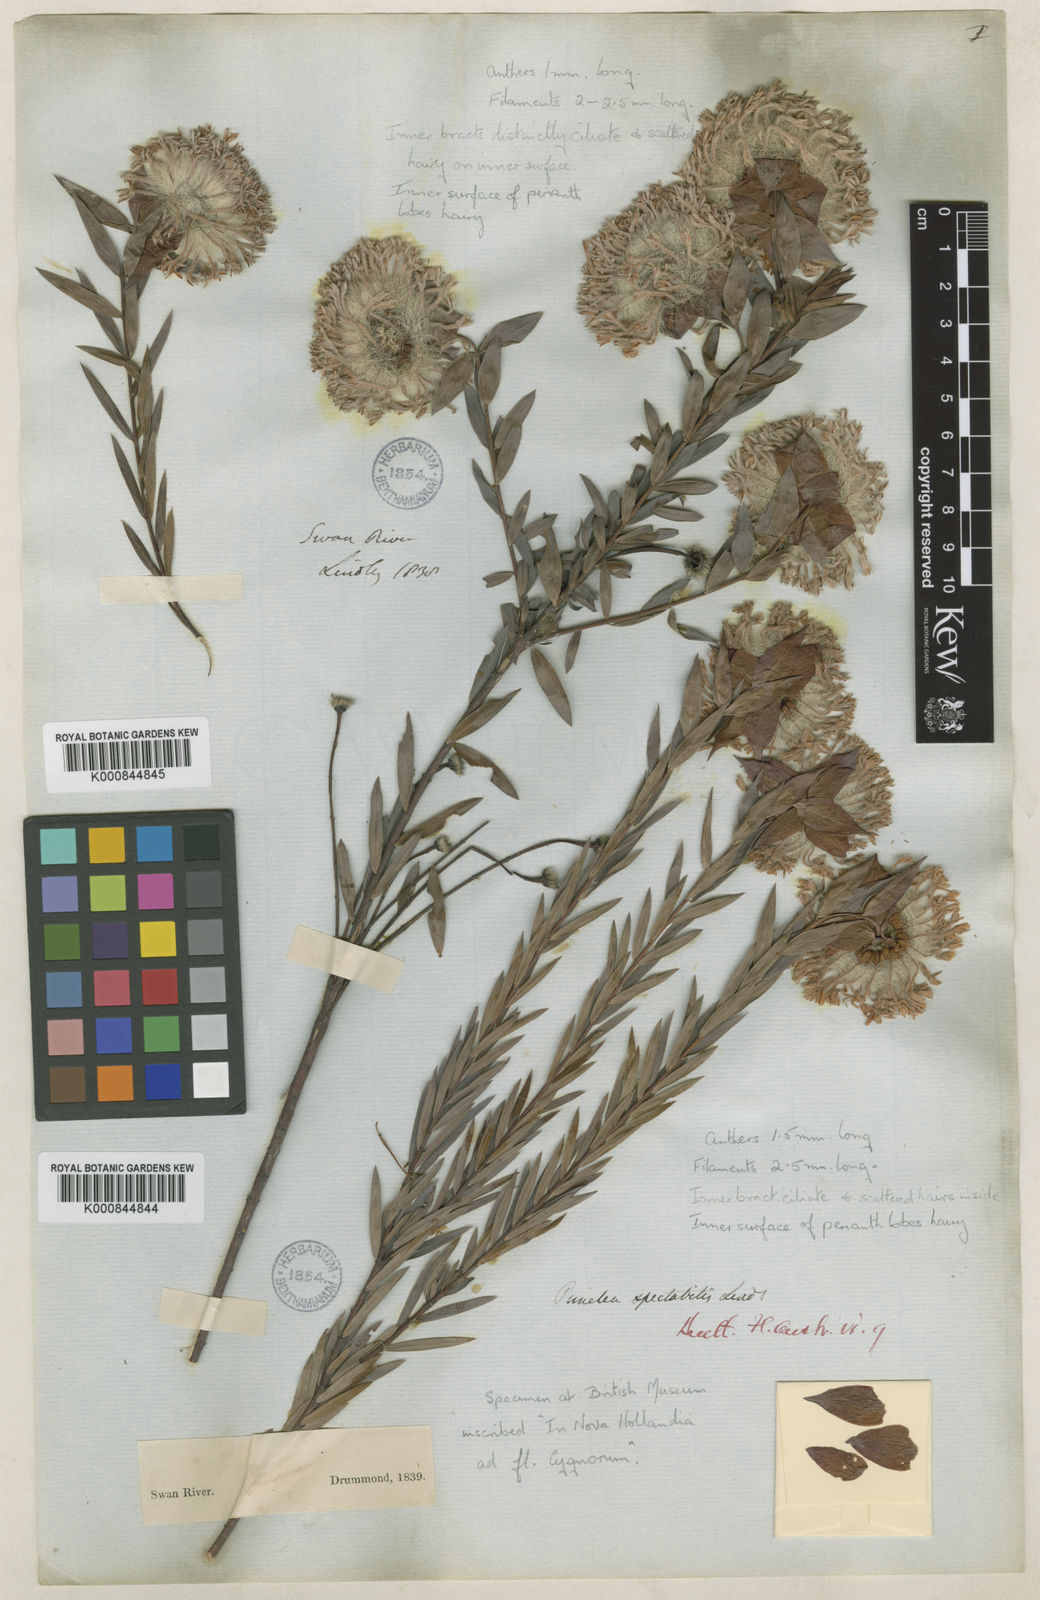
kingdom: Plantae
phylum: Tracheophyta
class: Magnoliopsida
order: Malvales
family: Thymelaeaceae
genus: Pimelea
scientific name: Pimelea spectabilis
